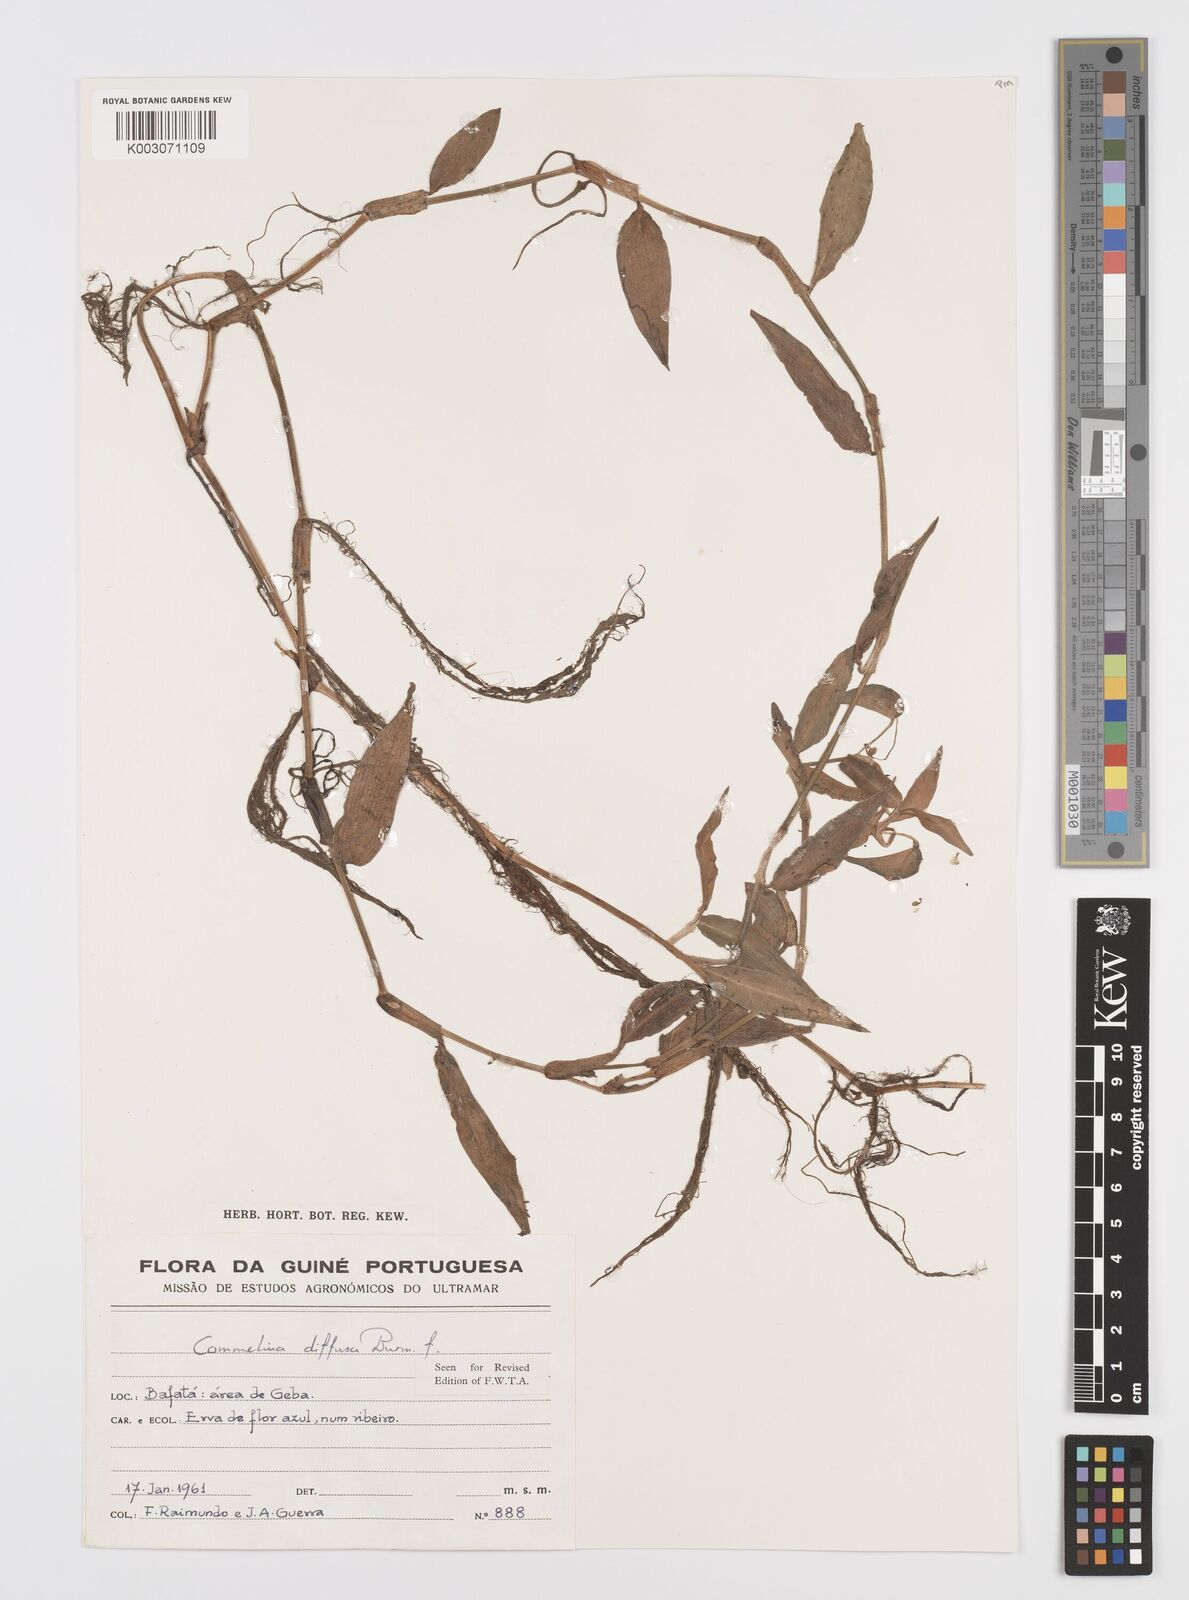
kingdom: Plantae
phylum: Tracheophyta
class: Liliopsida
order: Commelinales
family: Commelinaceae
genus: Commelina
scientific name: Commelina diffusa
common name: Climbing dayflower
